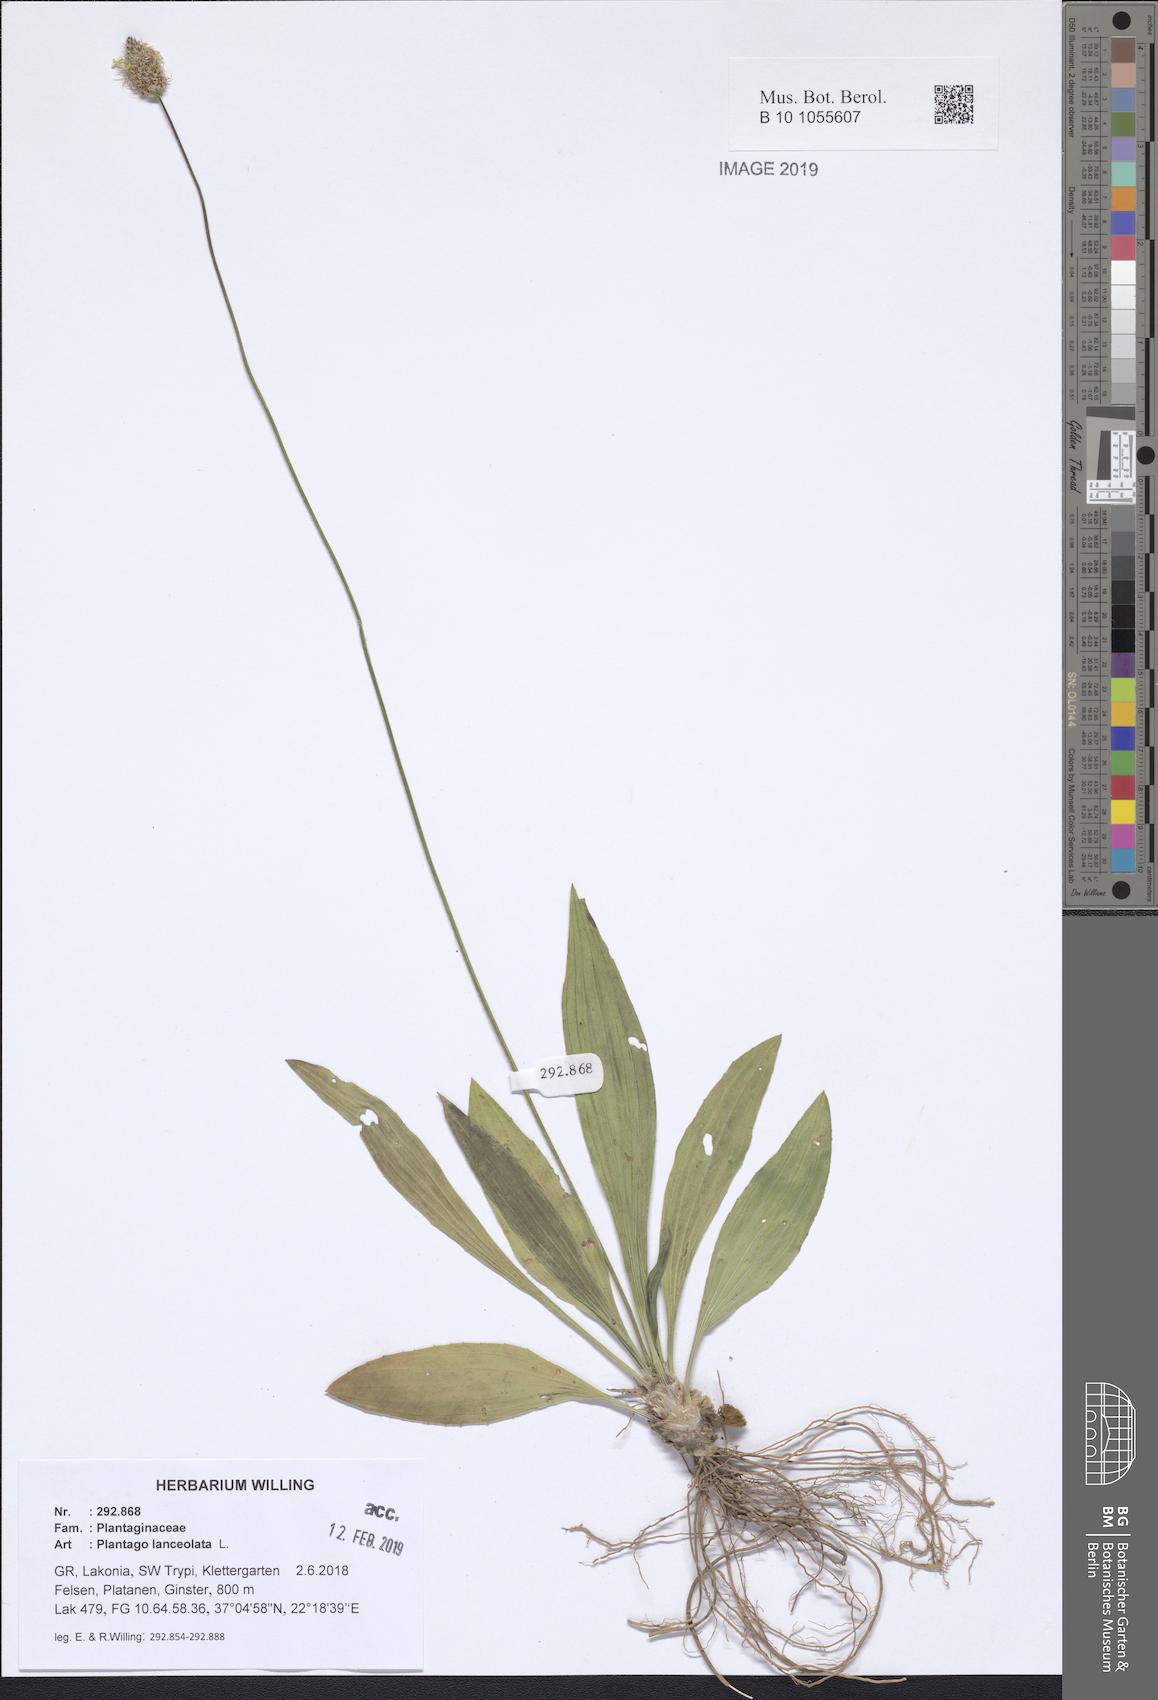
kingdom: Plantae
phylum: Tracheophyta
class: Magnoliopsida
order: Lamiales
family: Plantaginaceae
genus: Plantago
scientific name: Plantago lanceolata
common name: Ribwort plantain
